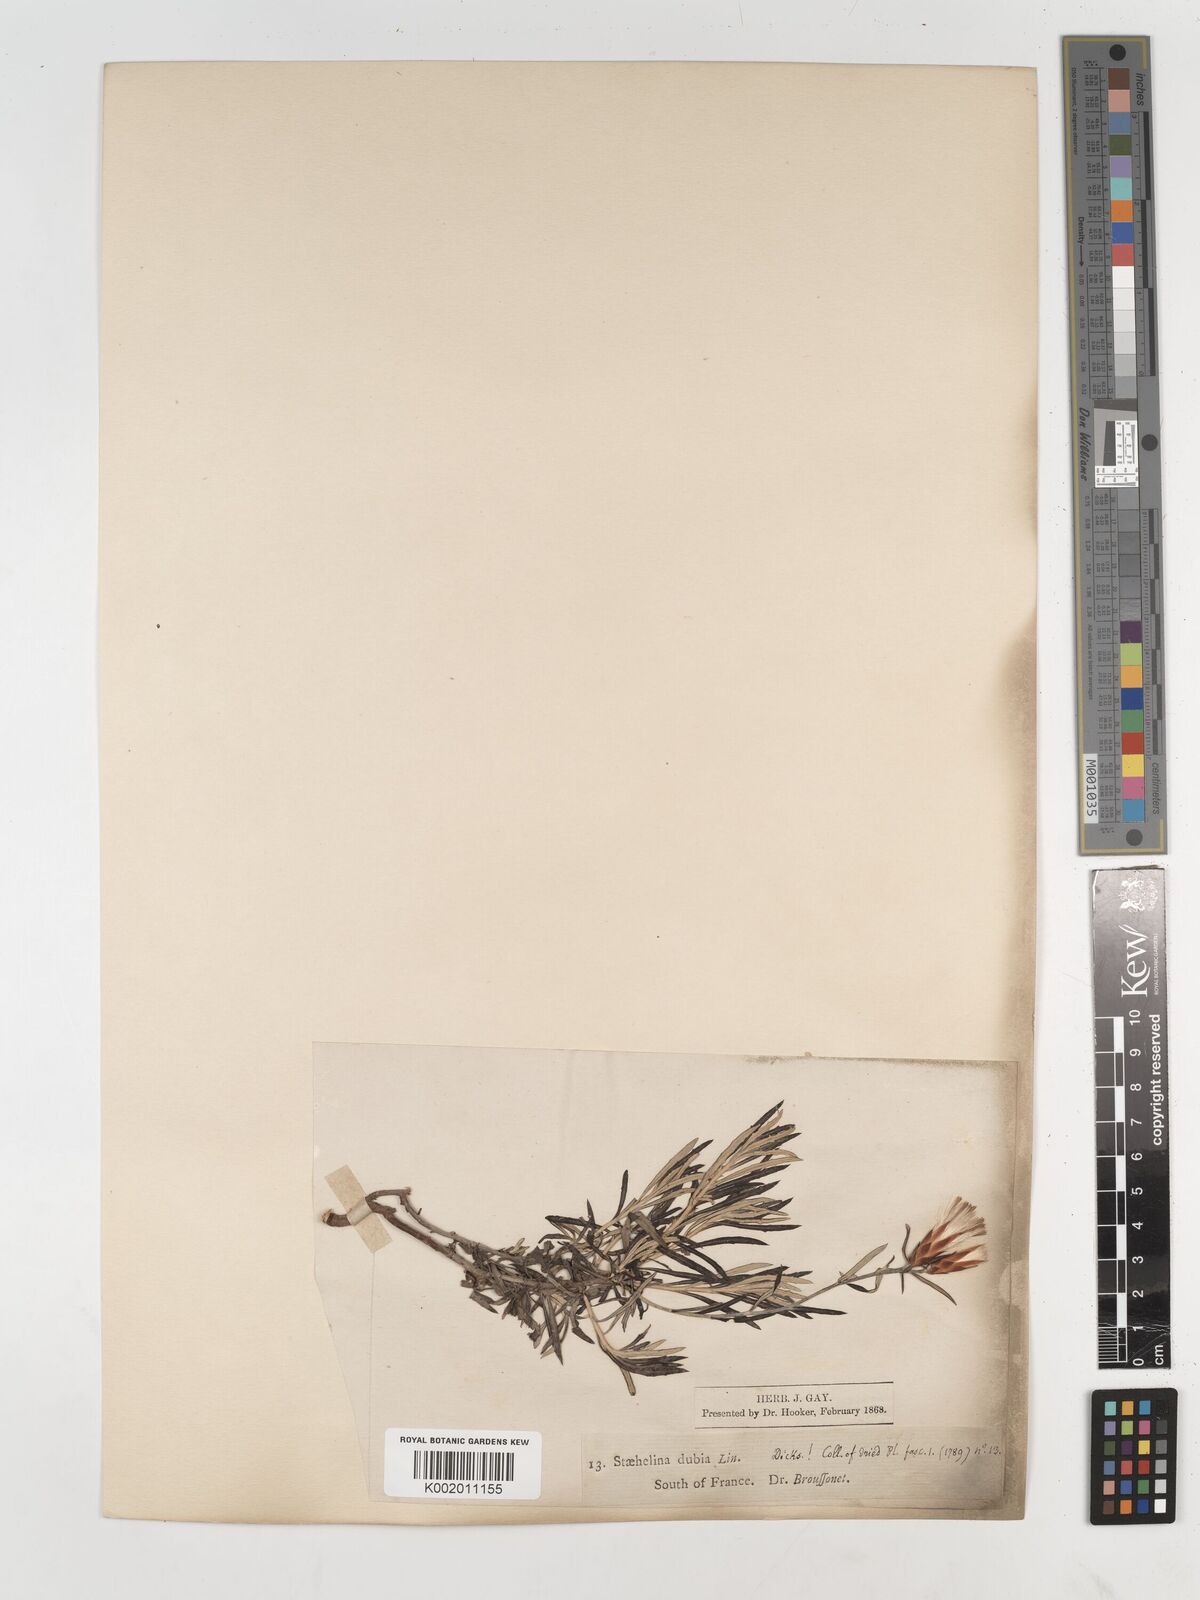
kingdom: Plantae
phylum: Tracheophyta
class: Magnoliopsida
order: Asterales
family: Asteraceae
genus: Staehelina
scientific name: Staehelina dubia
